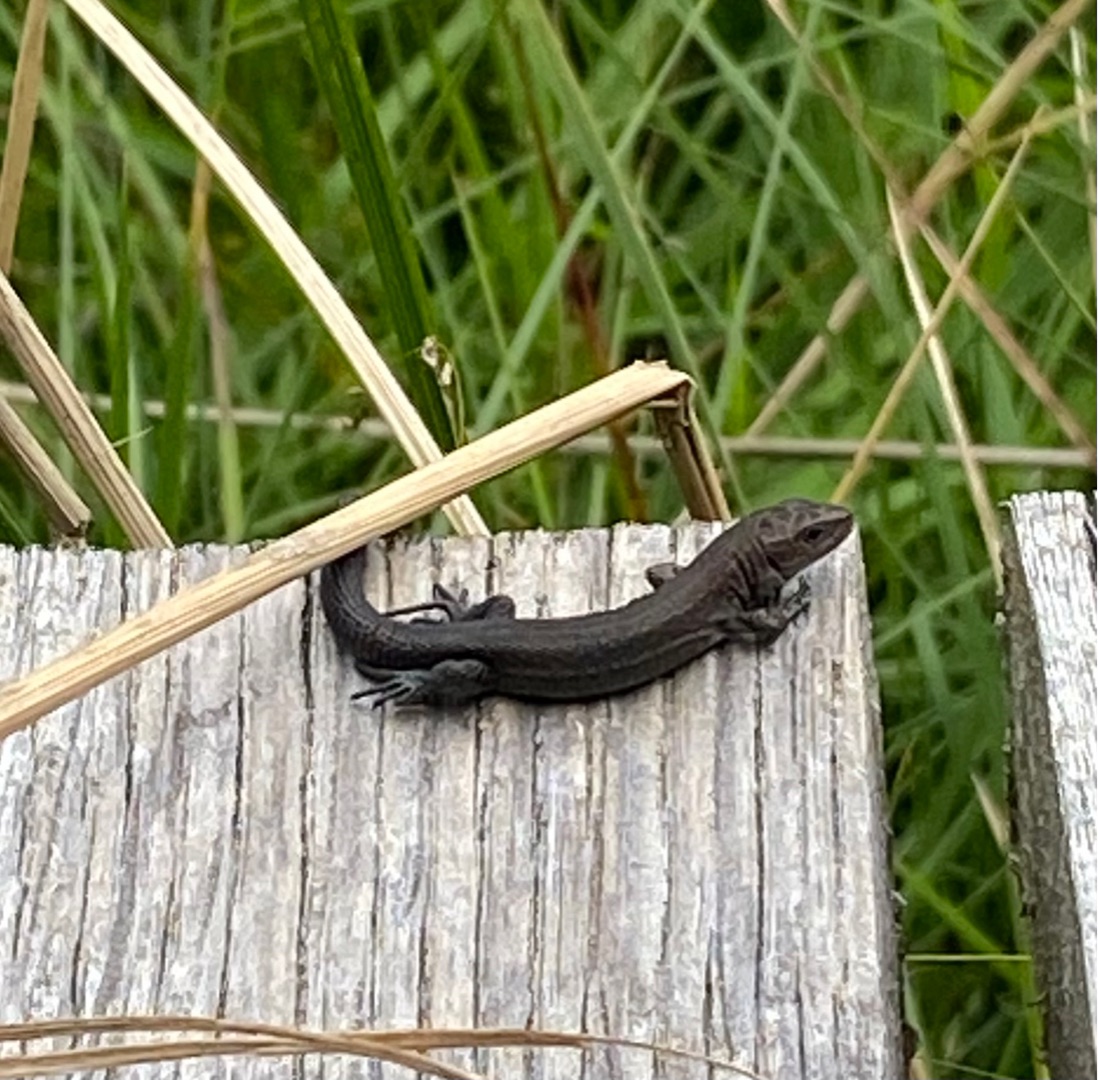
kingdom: Animalia
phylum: Chordata
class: Squamata
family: Lacertidae
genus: Zootoca
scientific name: Zootoca vivipara
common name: Skovfirben
